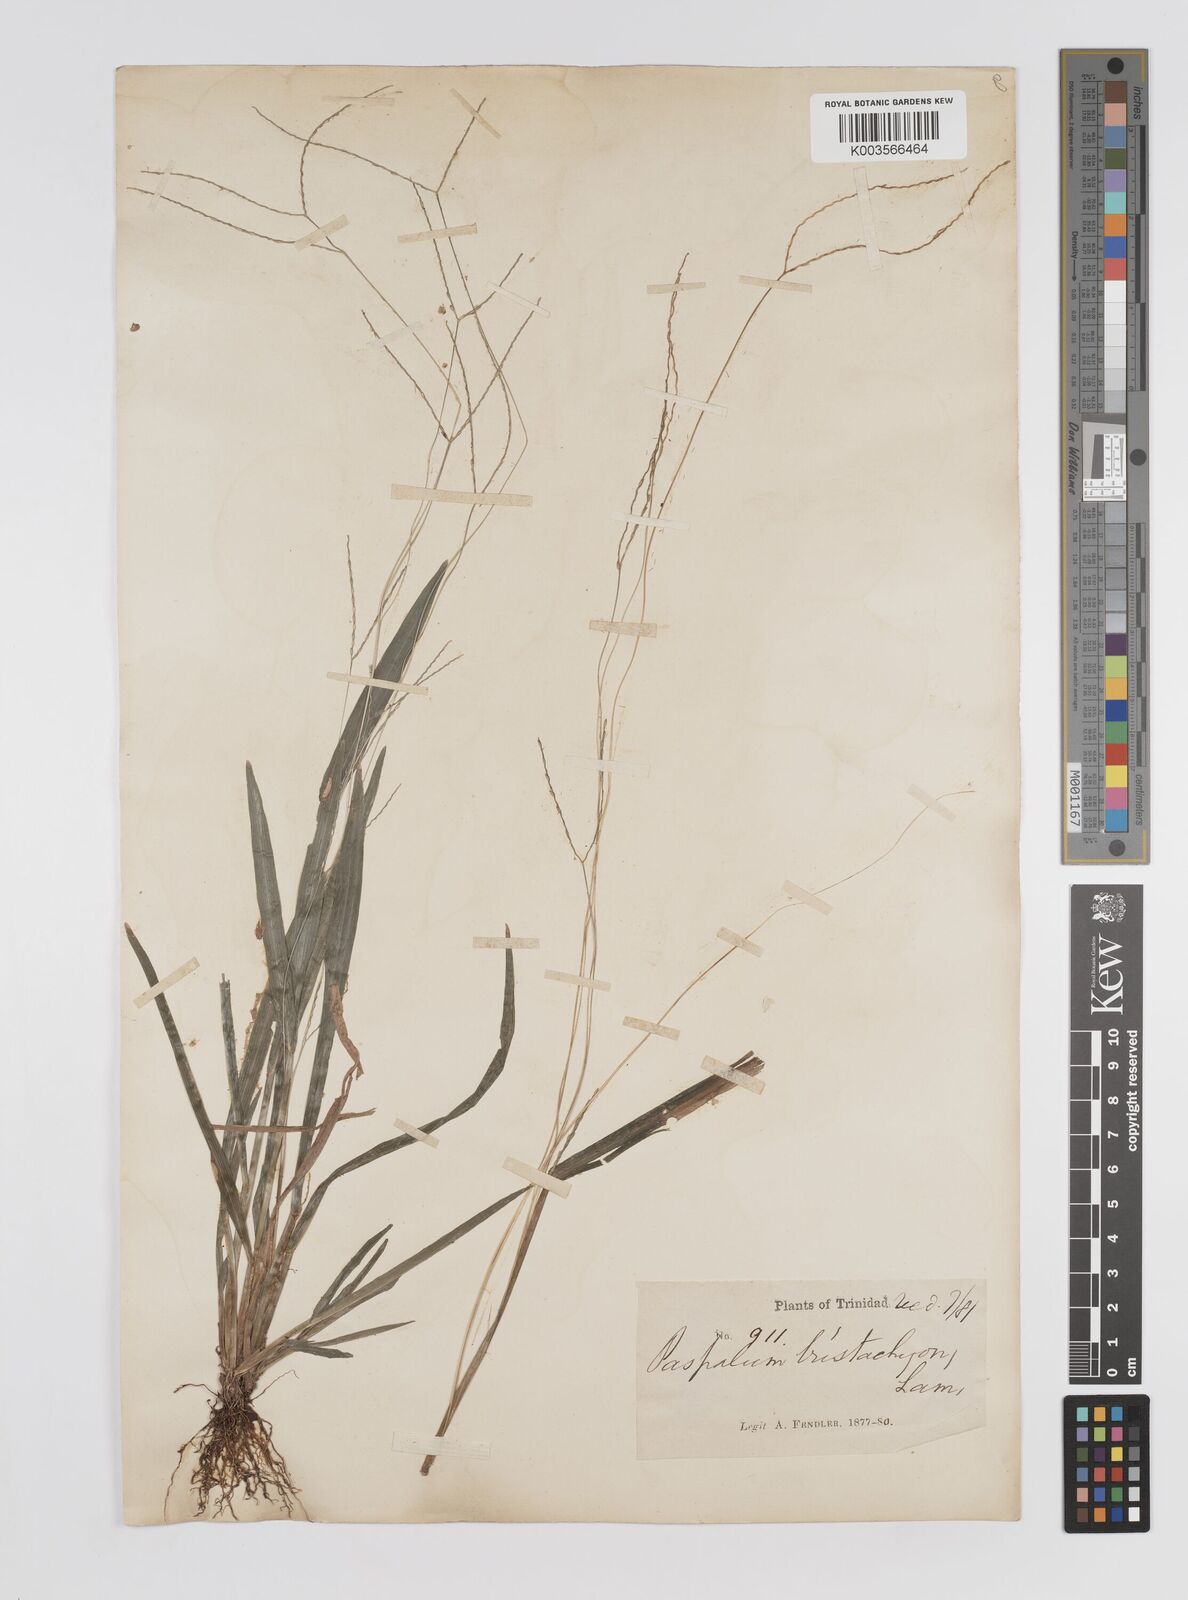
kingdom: Plantae
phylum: Tracheophyta
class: Liliopsida
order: Poales
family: Poaceae
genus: Axonopus
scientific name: Axonopus compressus
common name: American carpet grass
